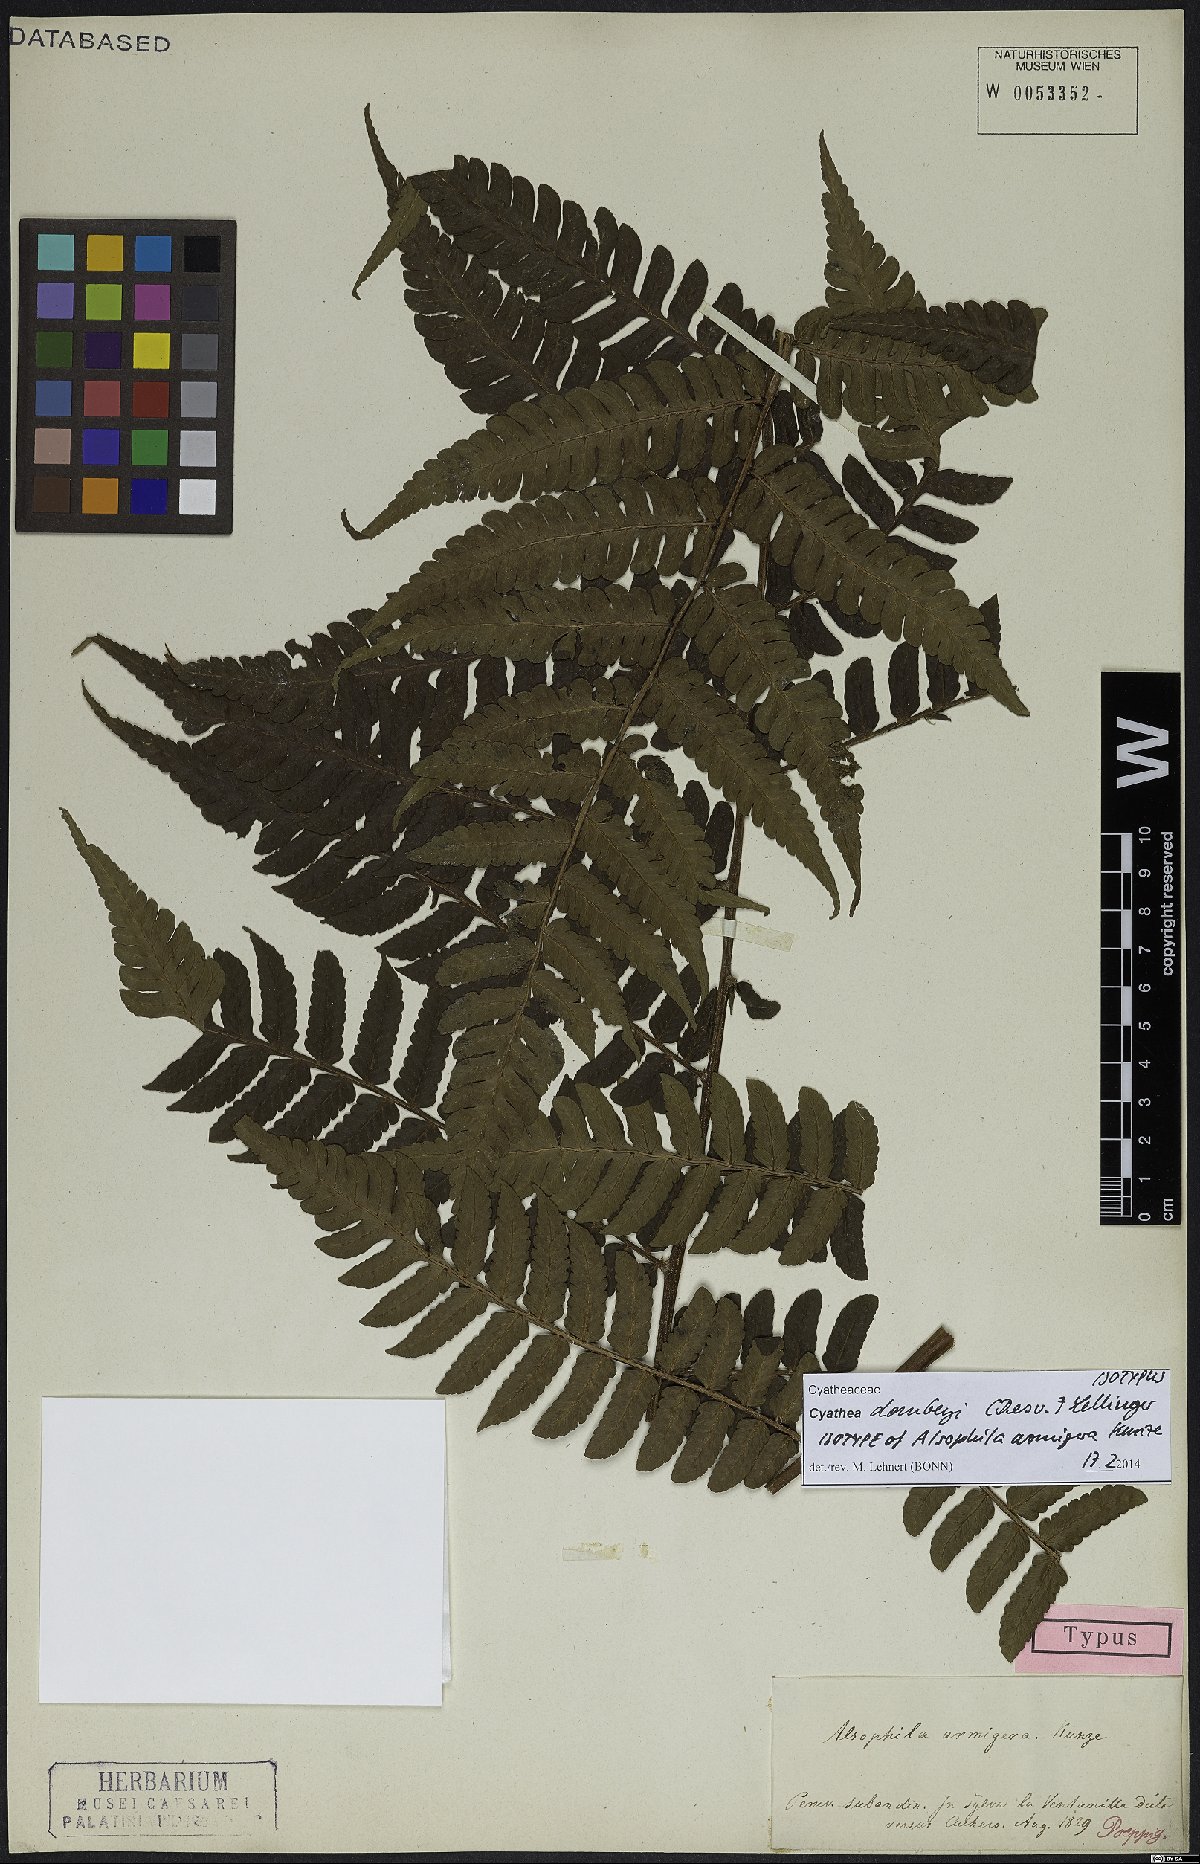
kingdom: Plantae
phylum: Tracheophyta
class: Polypodiopsida
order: Cyatheales
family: Cyatheaceae
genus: Cyathea
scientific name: Cyathea dombeyi
